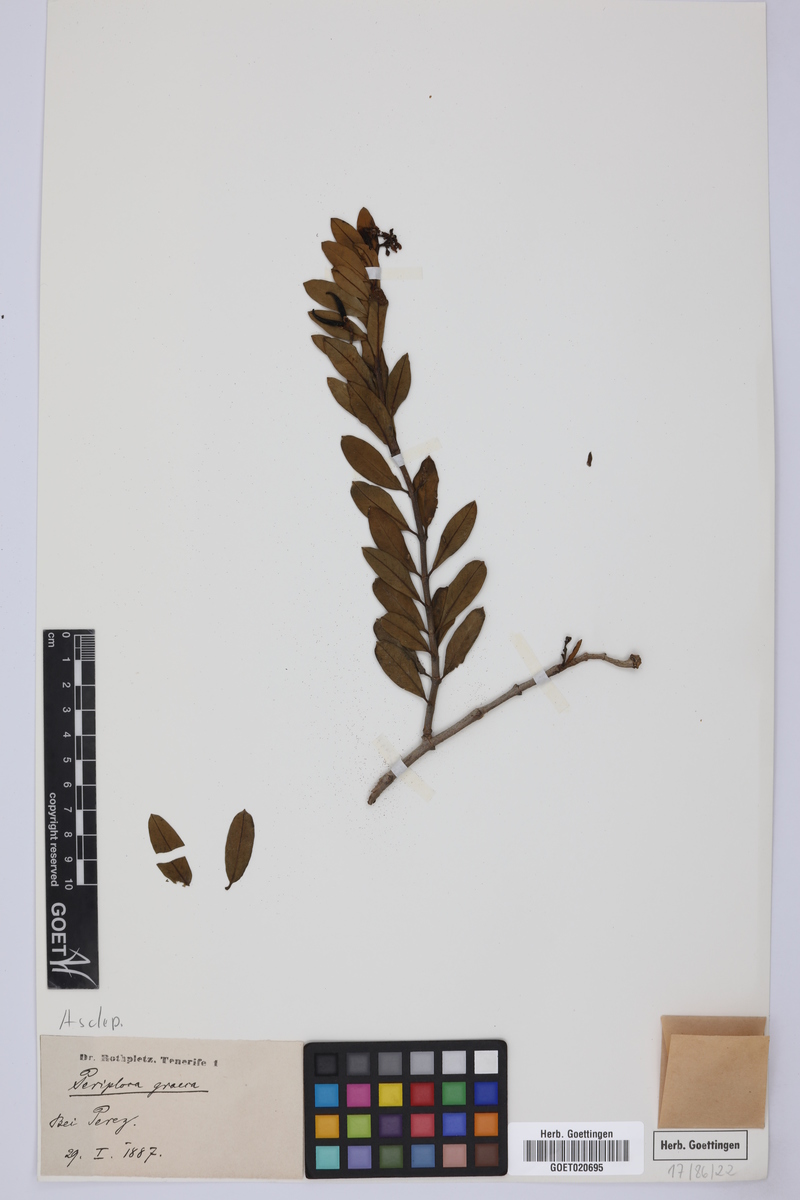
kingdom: Plantae
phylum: Tracheophyta
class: Magnoliopsida
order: Gentianales
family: Apocynaceae
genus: Periploca
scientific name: Periploca laevigata
